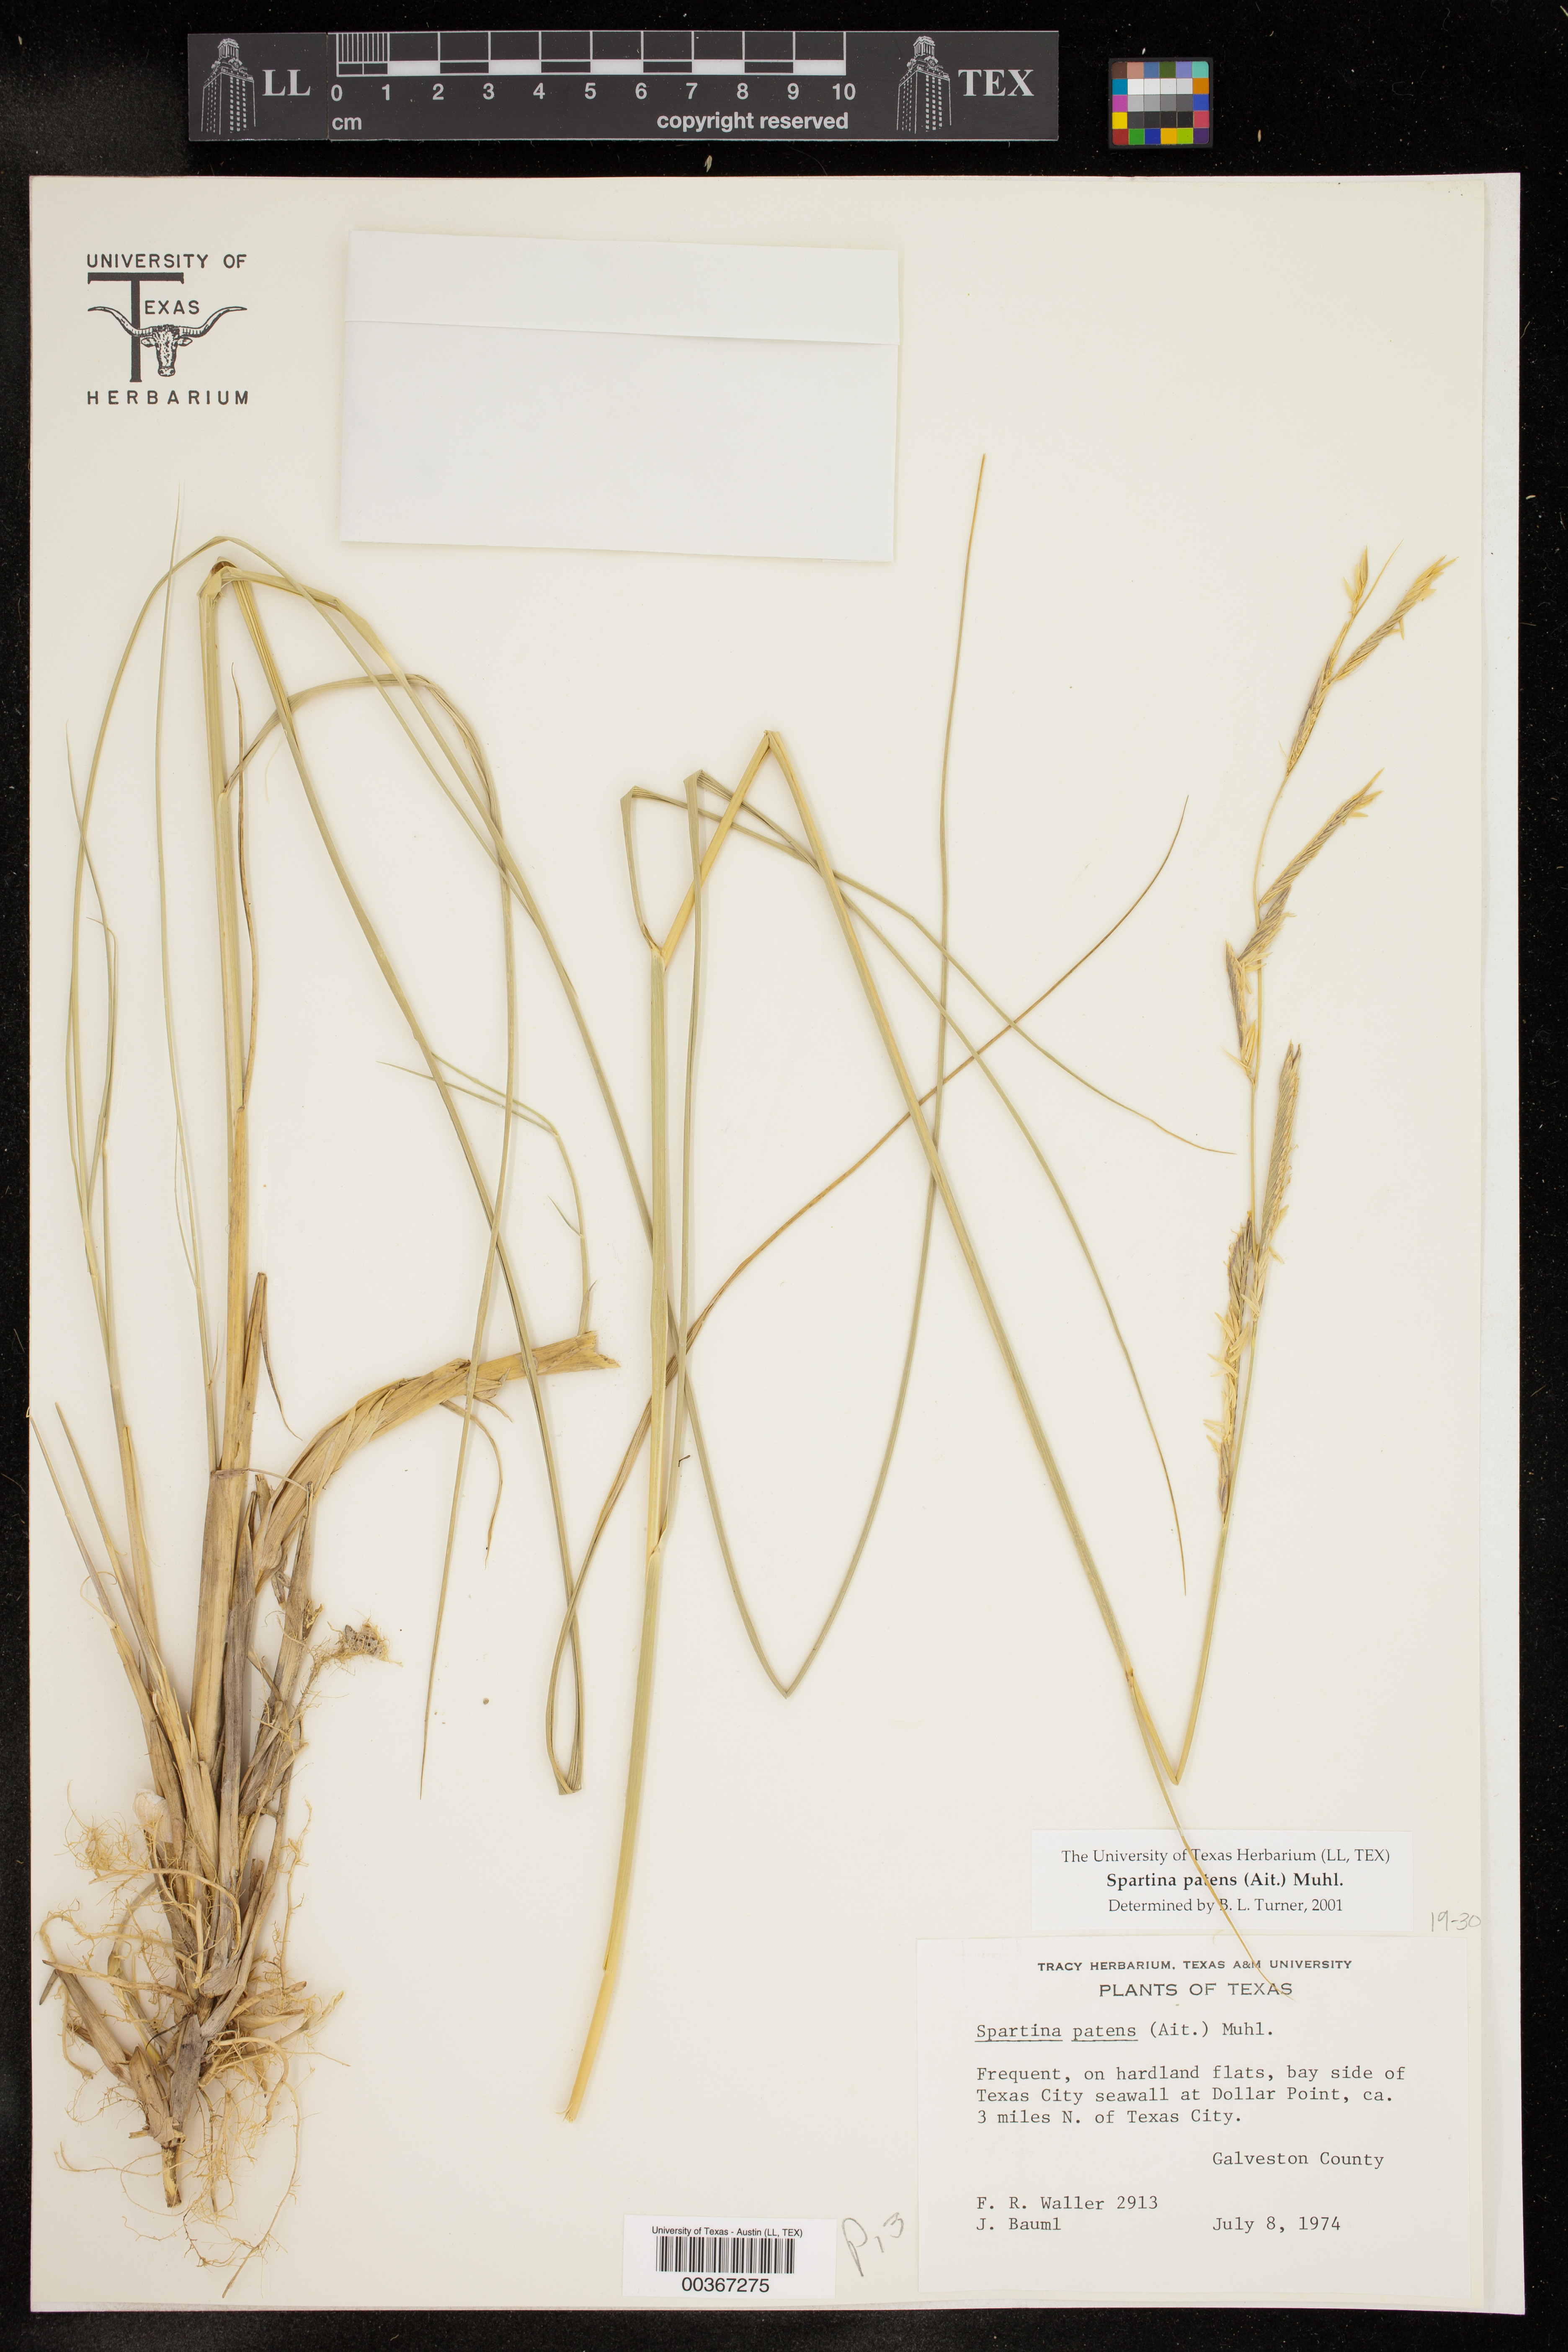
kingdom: Plantae
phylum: Tracheophyta
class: Liliopsida
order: Poales
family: Poaceae
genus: Sporobolus
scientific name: Sporobolus pumilus
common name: Highwater grass
